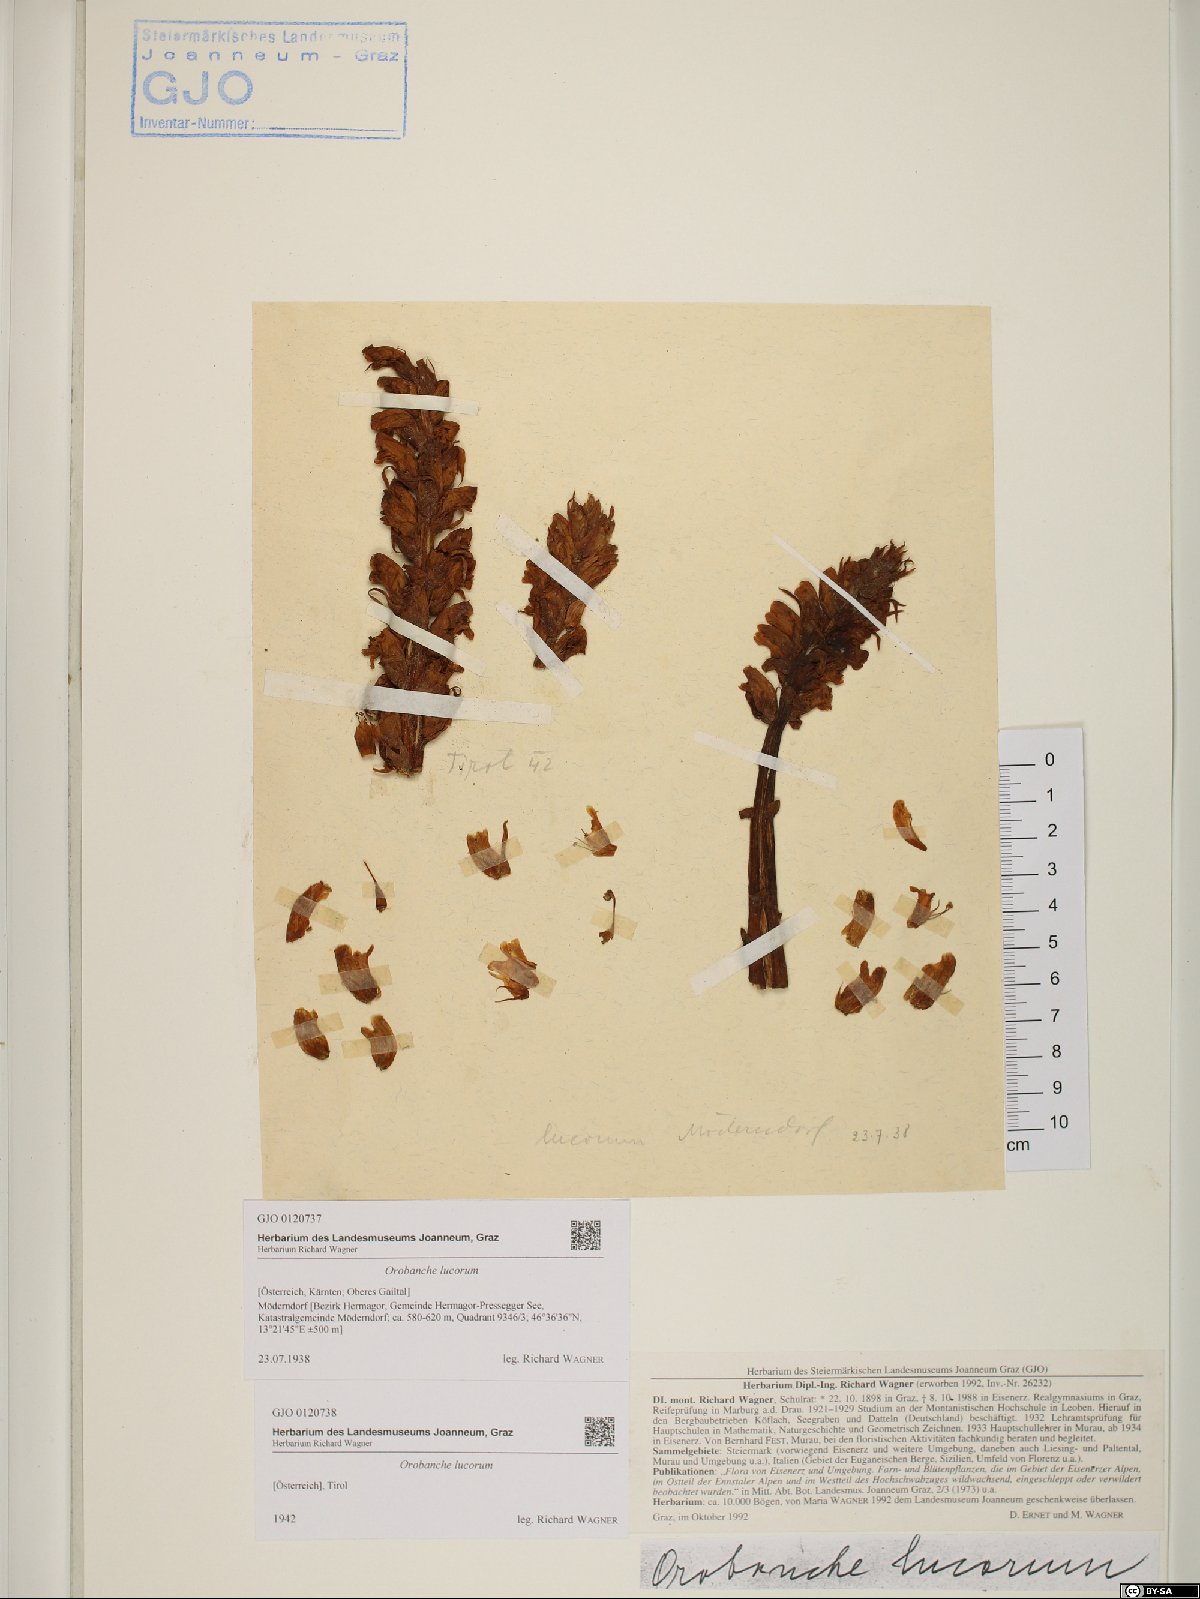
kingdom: Plantae
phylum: Tracheophyta
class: Magnoliopsida
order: Lamiales
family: Orobanchaceae
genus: Orobanche
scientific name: Orobanche lucorum
